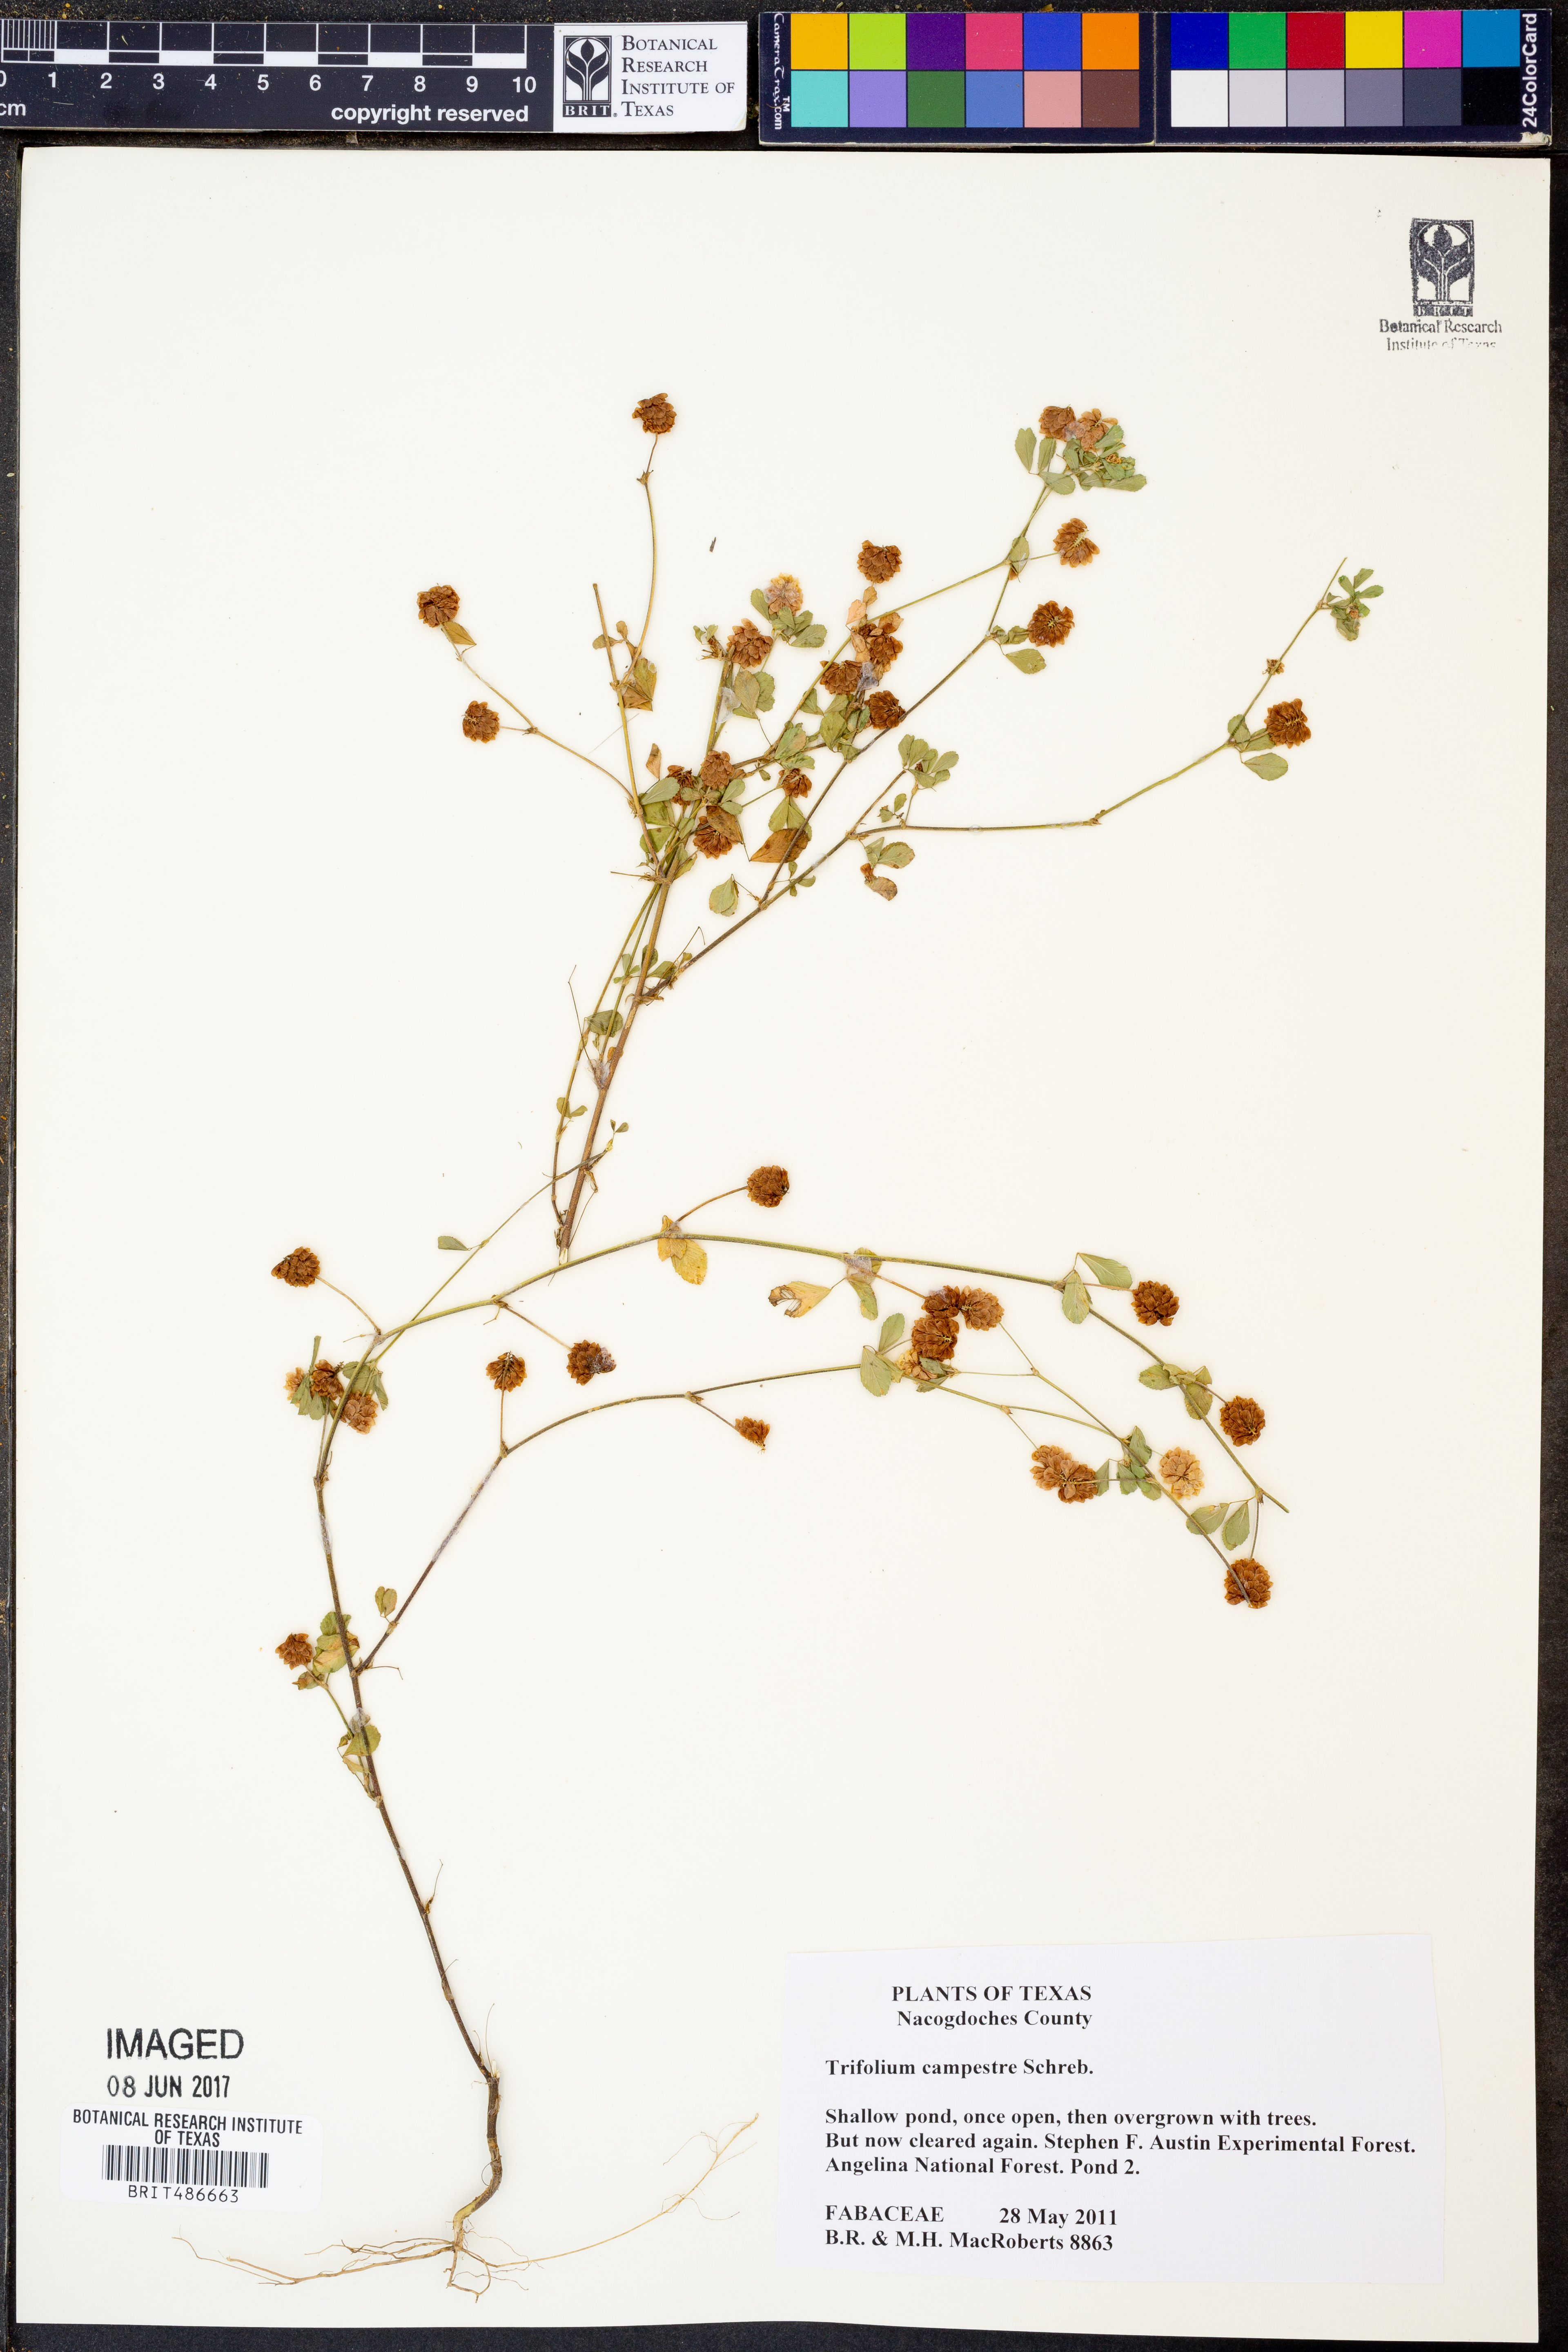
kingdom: Plantae
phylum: Tracheophyta
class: Magnoliopsida
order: Fabales
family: Fabaceae
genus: Trifolium
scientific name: Trifolium campestre
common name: Field clover
